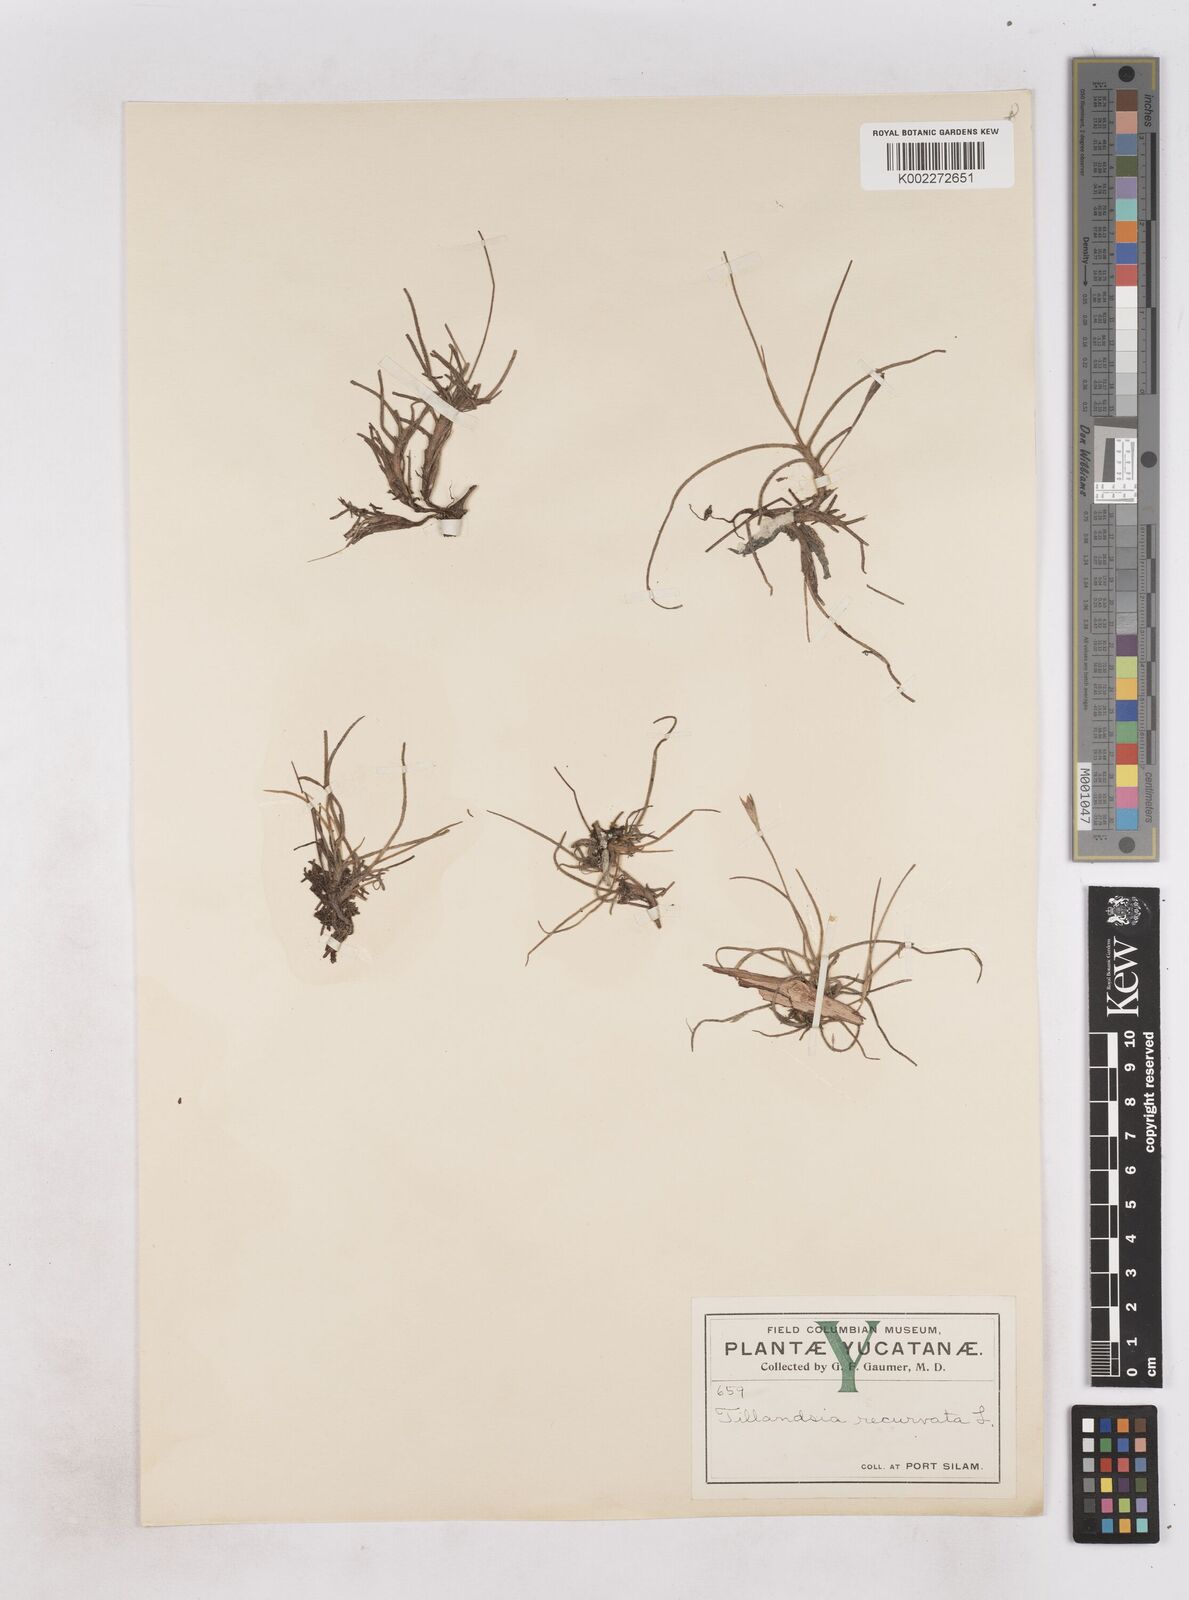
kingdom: Plantae
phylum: Tracheophyta
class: Liliopsida
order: Poales
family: Bromeliaceae
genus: Tillandsia
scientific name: Tillandsia recurvata
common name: Small ballmoss
